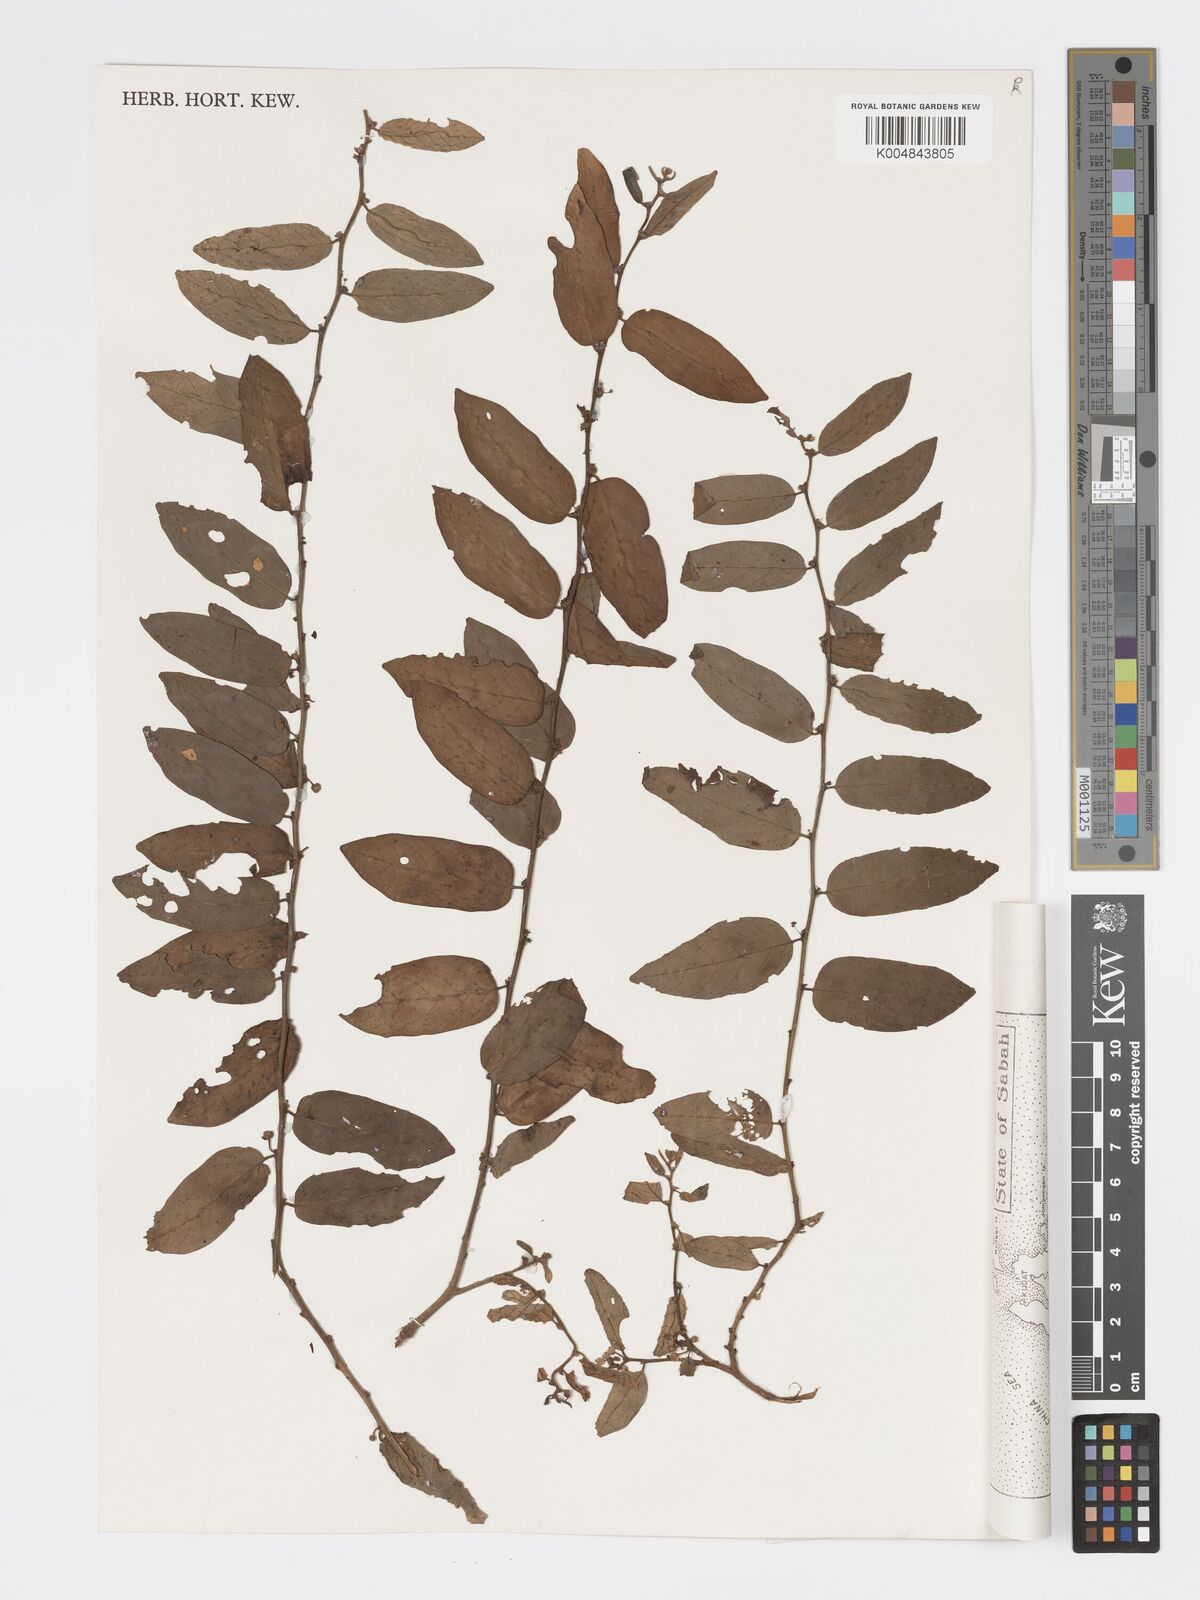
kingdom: Plantae
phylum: Tracheophyta
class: Magnoliopsida
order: Malpighiales
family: Phyllanthaceae
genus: Glochidion
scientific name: Glochidion sericeum
